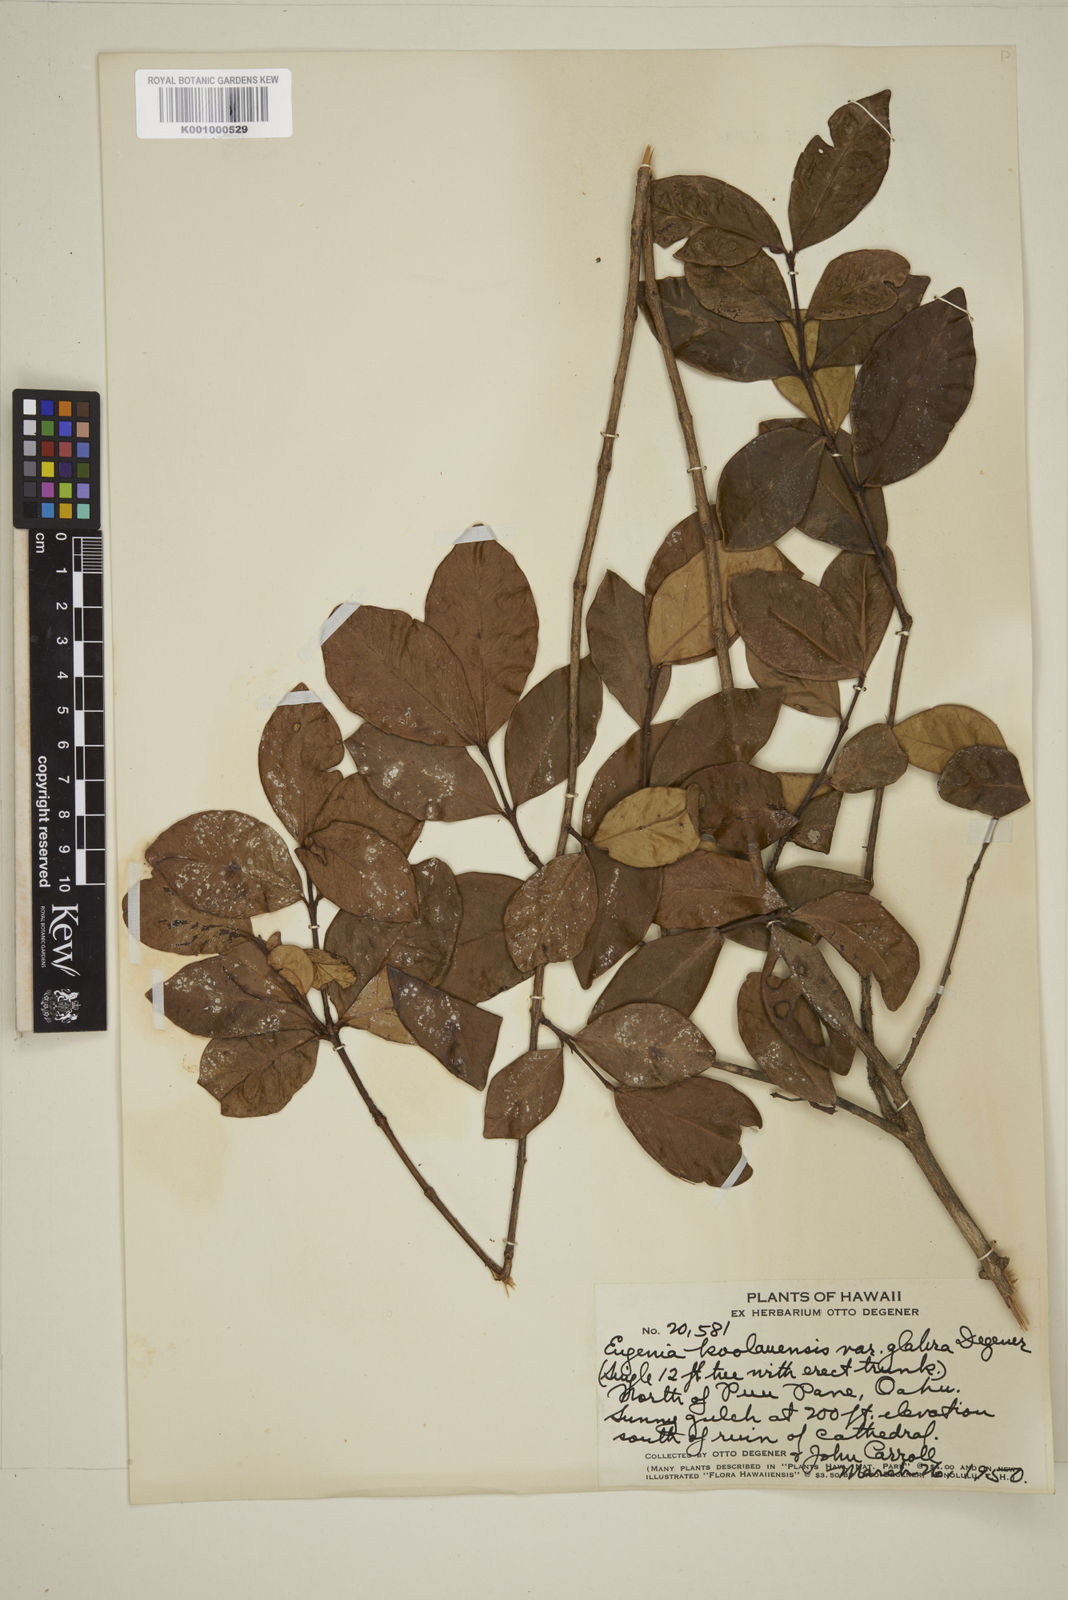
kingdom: Plantae
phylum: Tracheophyta
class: Magnoliopsida
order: Myrtales
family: Myrtaceae
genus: Eugenia
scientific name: Eugenia koolauensis
